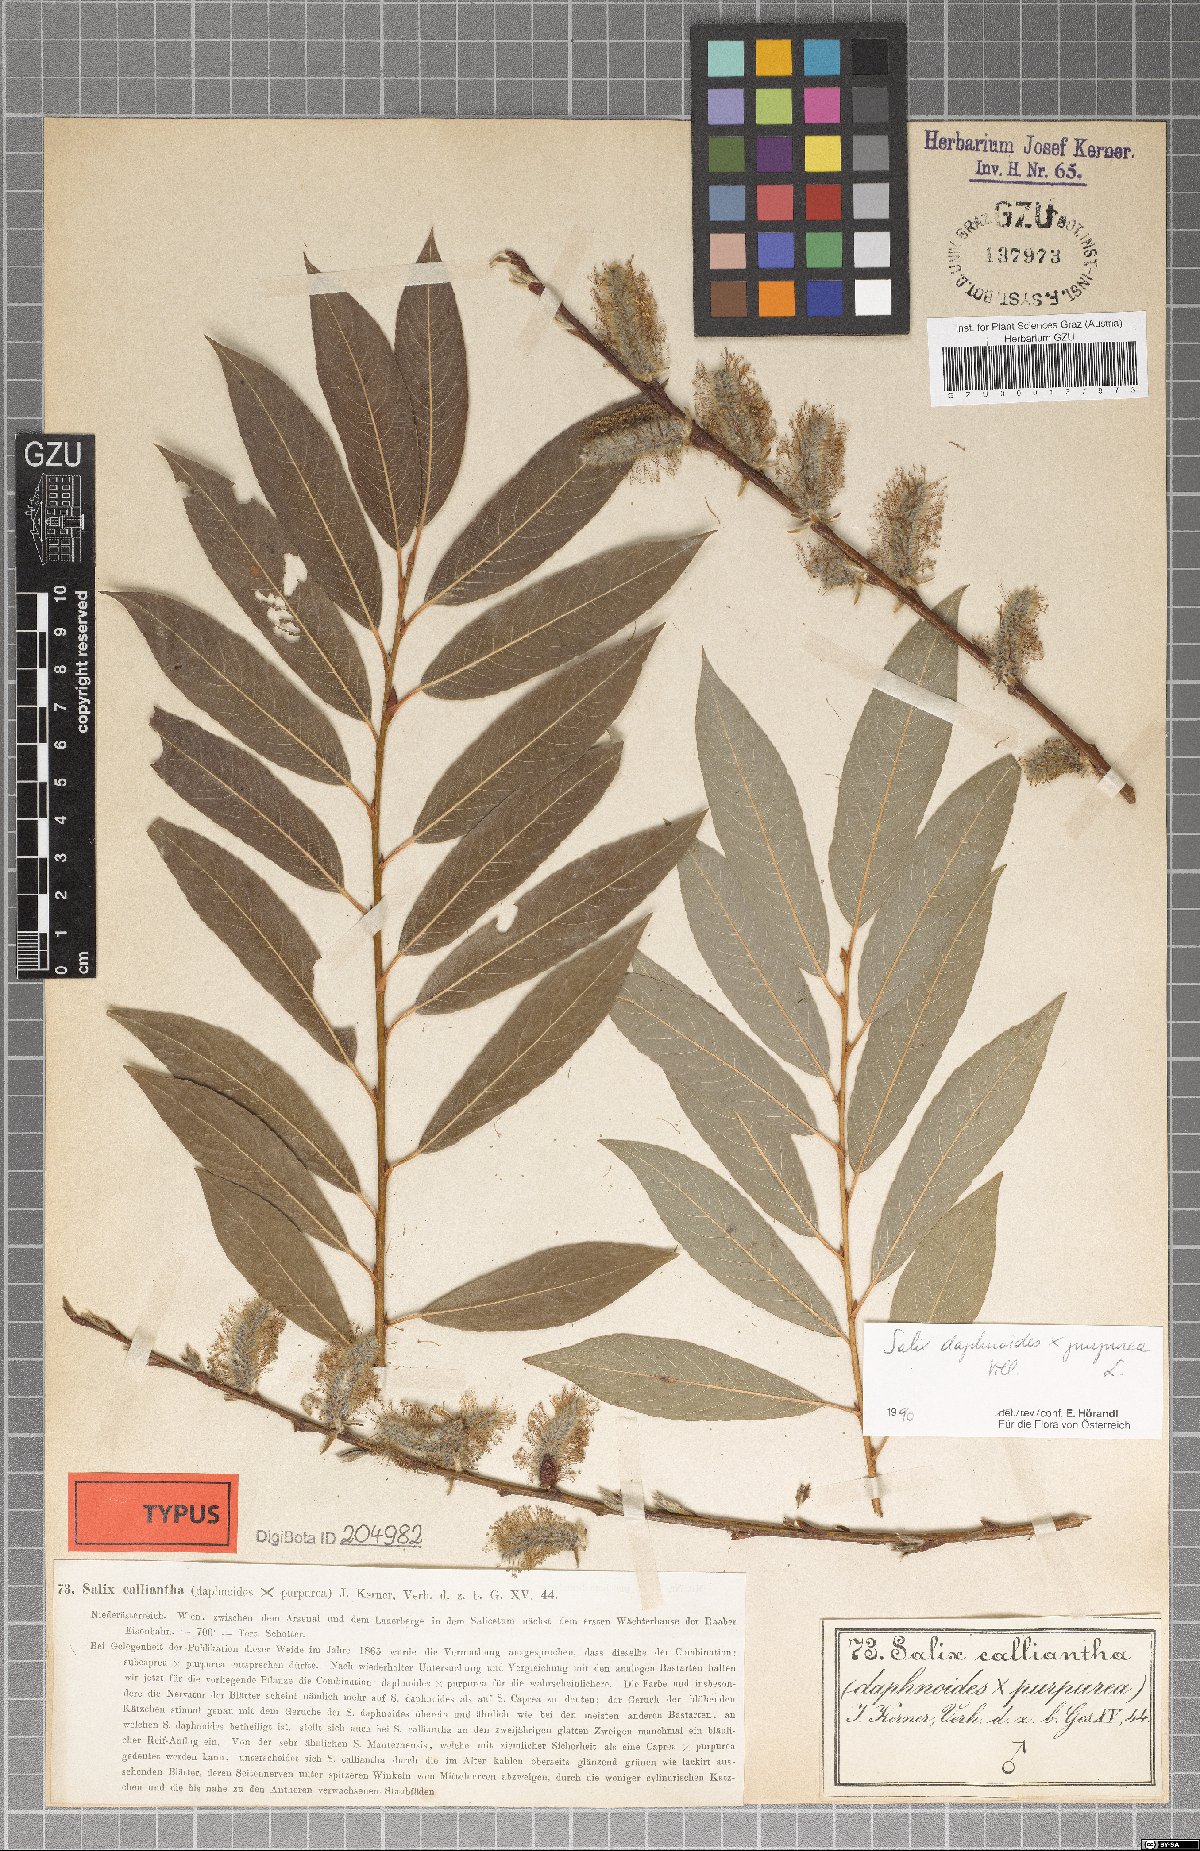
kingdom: Plantae
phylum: Tracheophyta
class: Magnoliopsida
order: Malpighiales
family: Salicaceae
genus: Salix
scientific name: Salix calliantha
